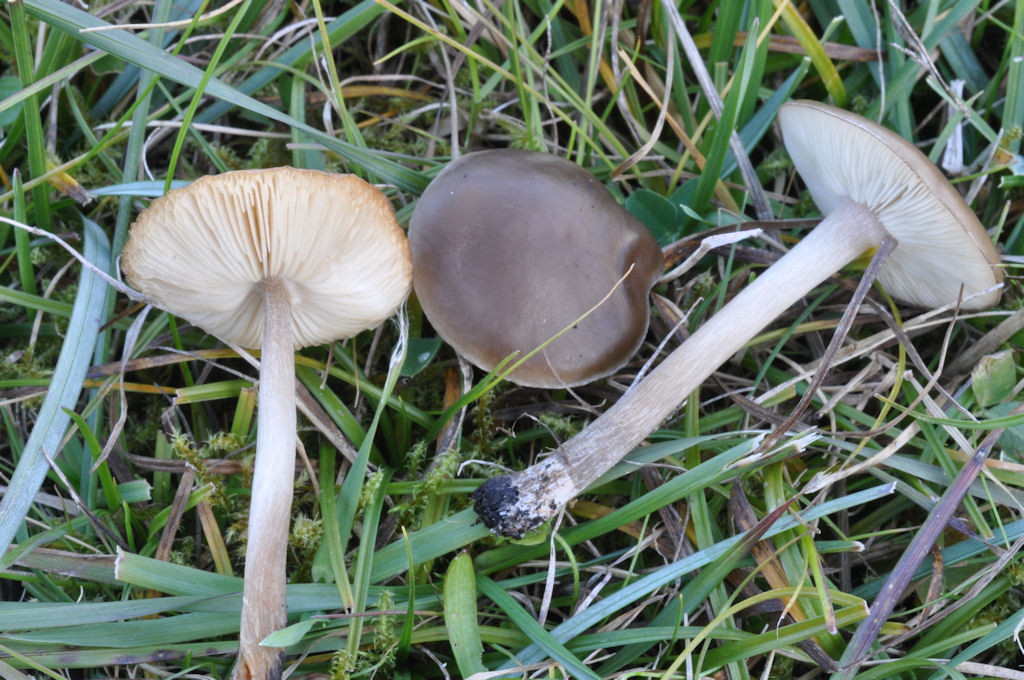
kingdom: Fungi
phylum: Basidiomycota
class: Agaricomycetes
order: Agaricales
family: Tricholomataceae
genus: Melanoleuca
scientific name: Melanoleuca polioleuca
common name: almindelig munkehat
